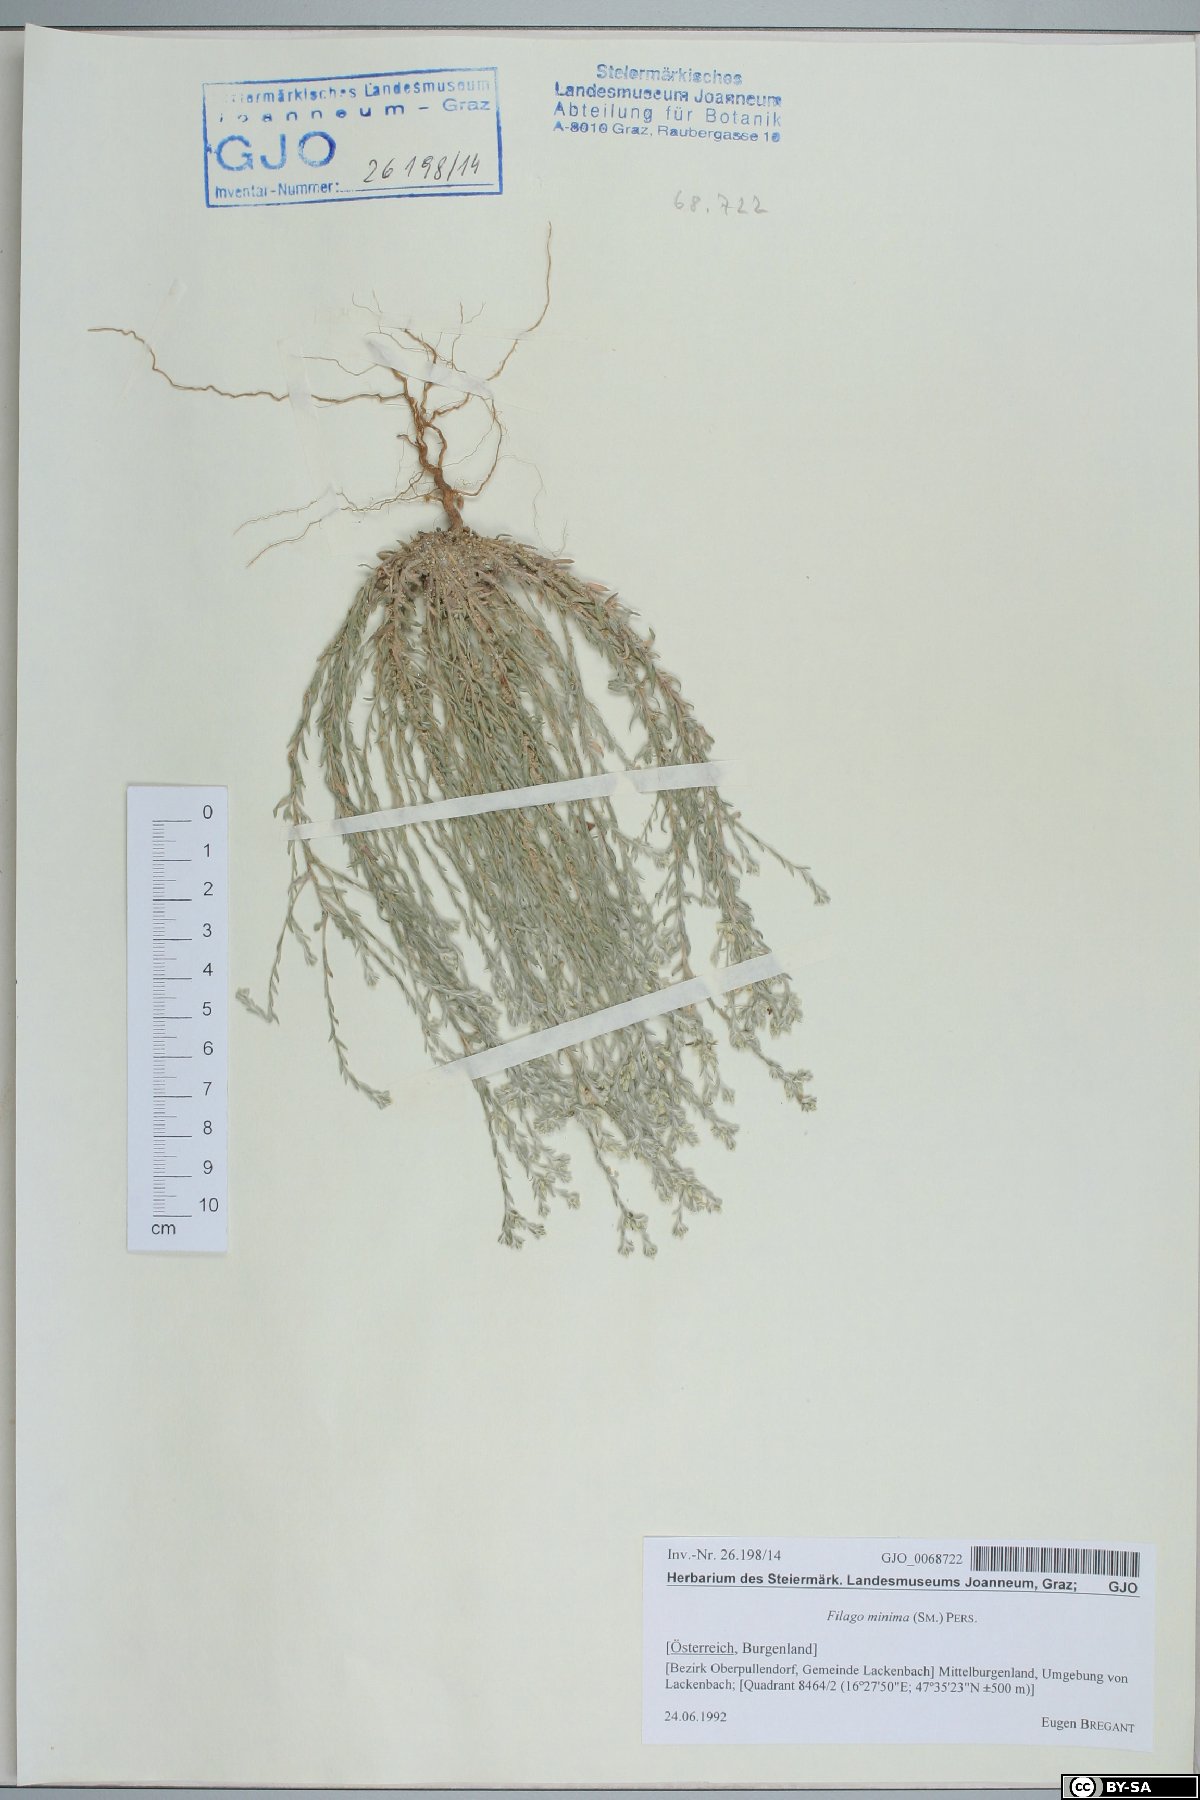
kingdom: Plantae
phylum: Tracheophyta
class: Magnoliopsida
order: Asterales
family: Asteraceae
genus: Logfia
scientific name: Logfia minima
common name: Little cottonrose
